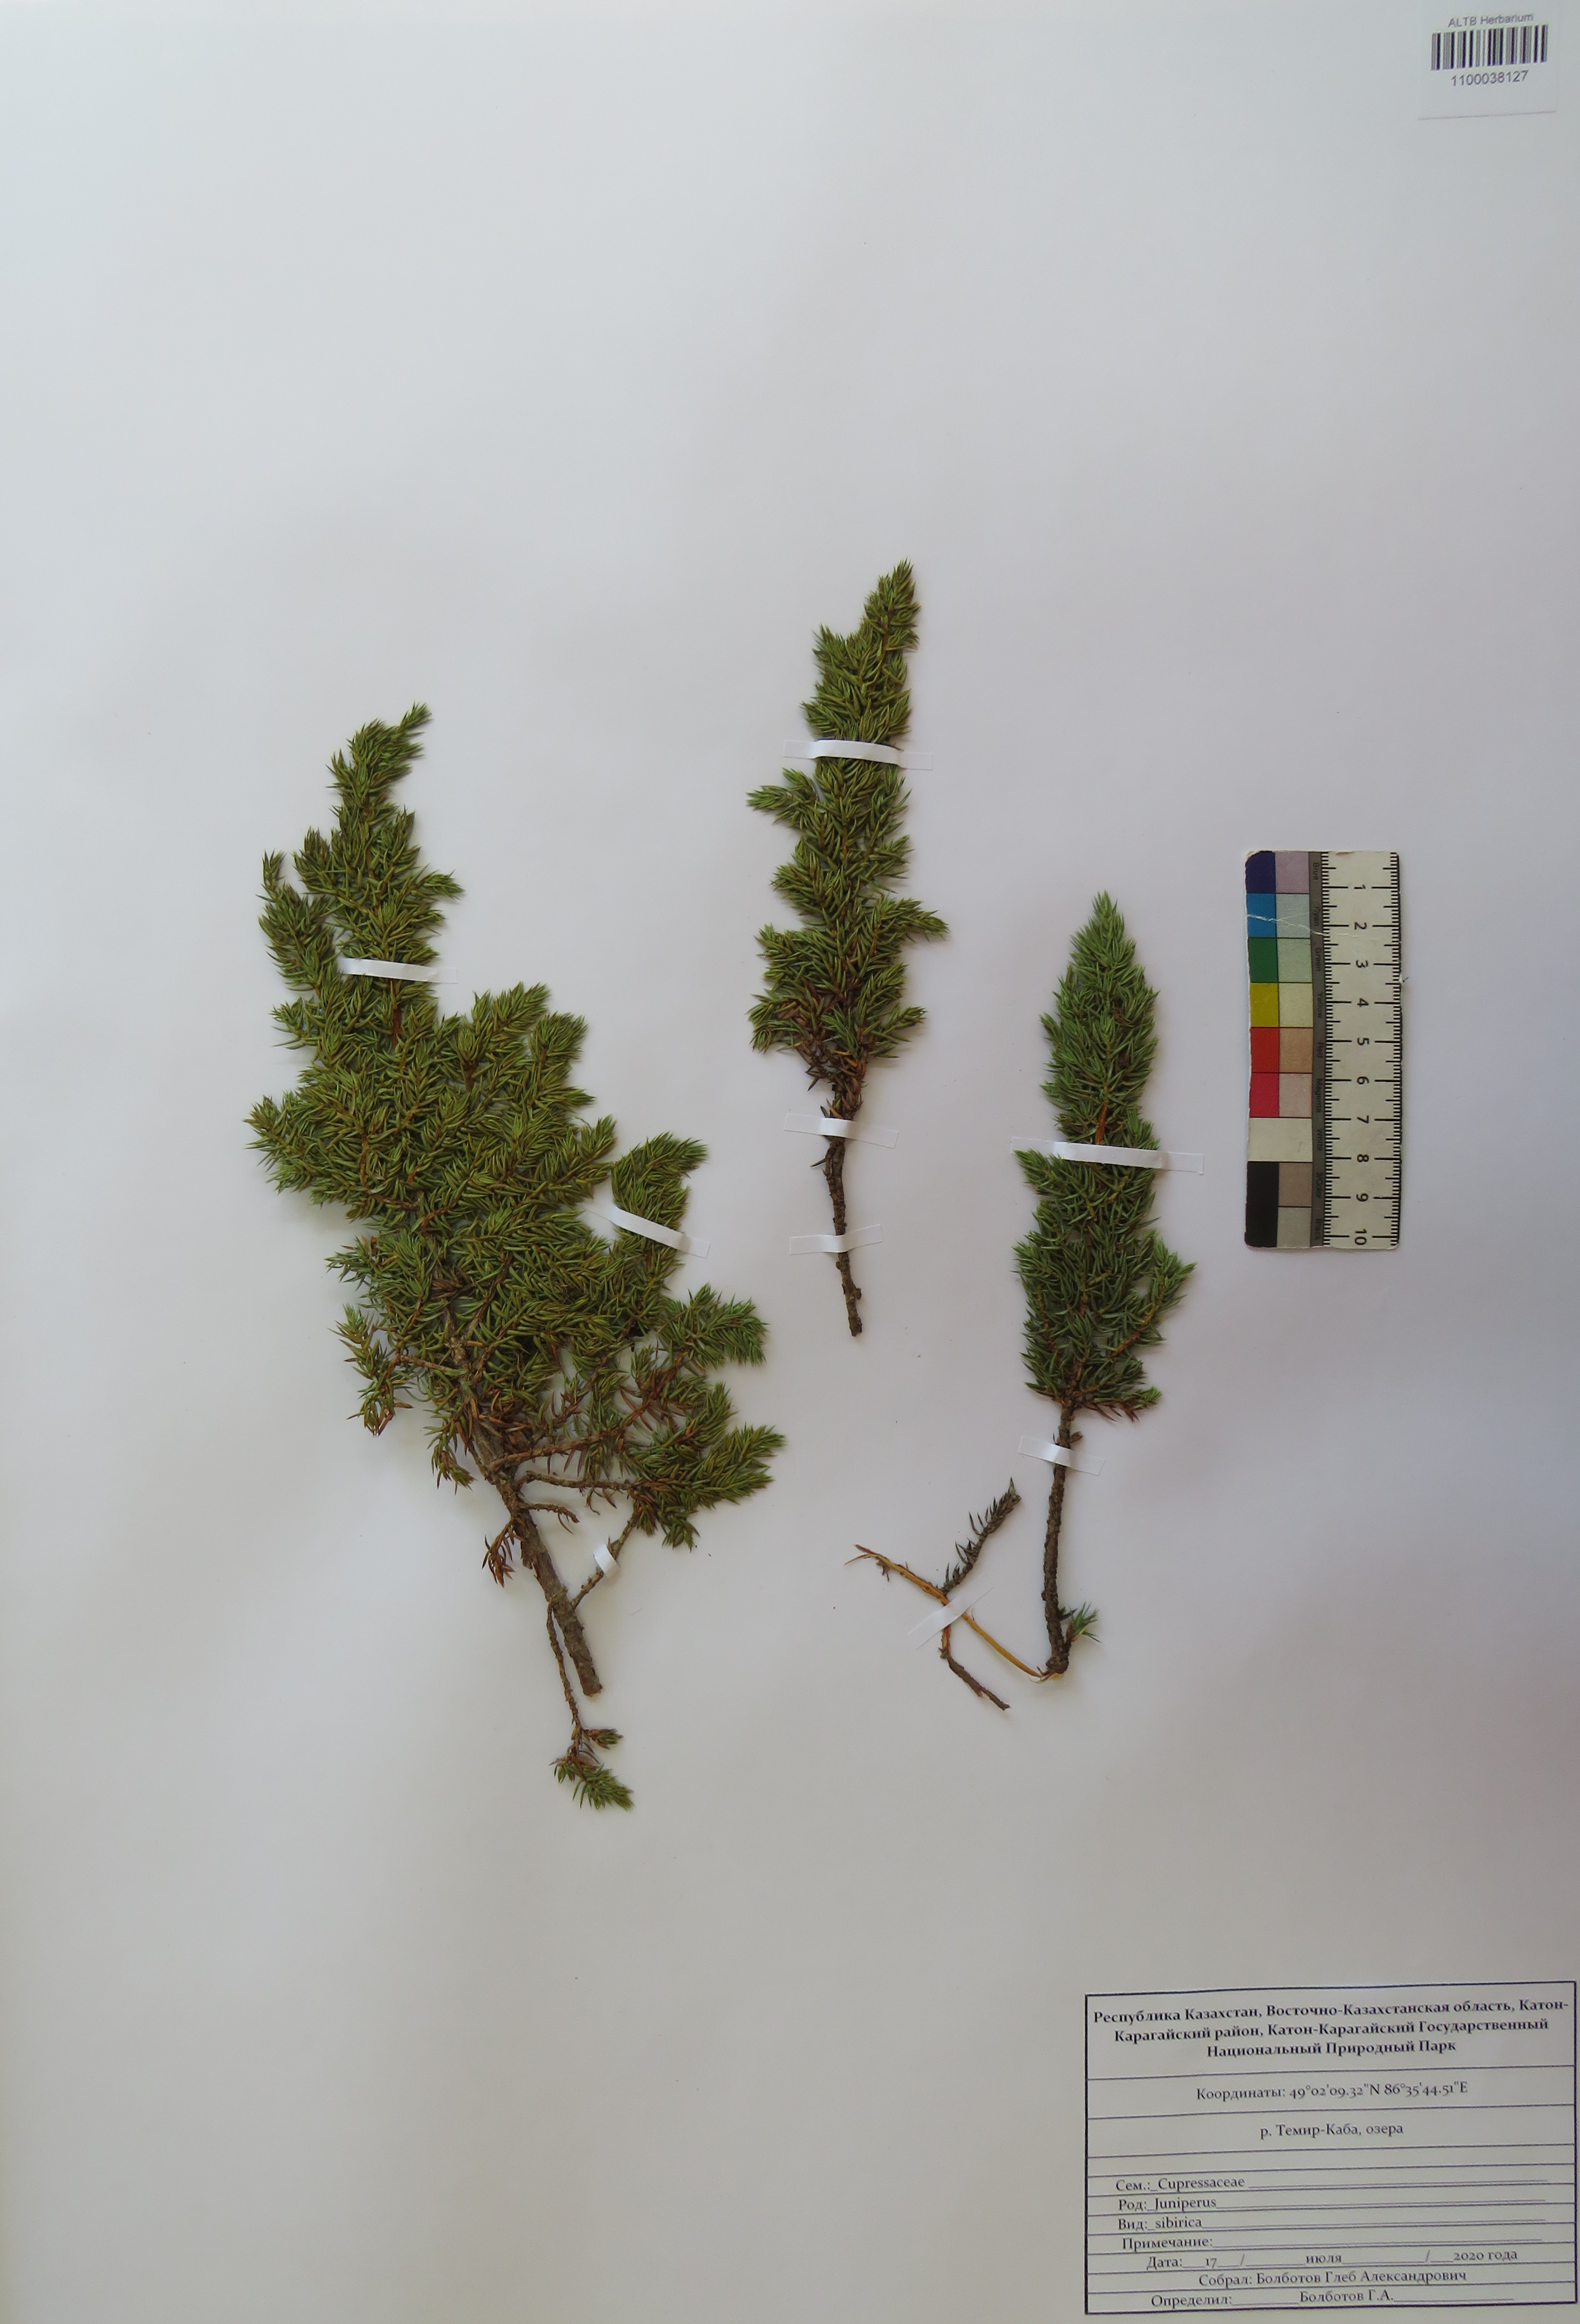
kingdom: Plantae
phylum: Tracheophyta
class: Pinopsida
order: Pinales
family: Cupressaceae
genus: Juniperus
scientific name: Juniperus communis
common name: Common juniper
